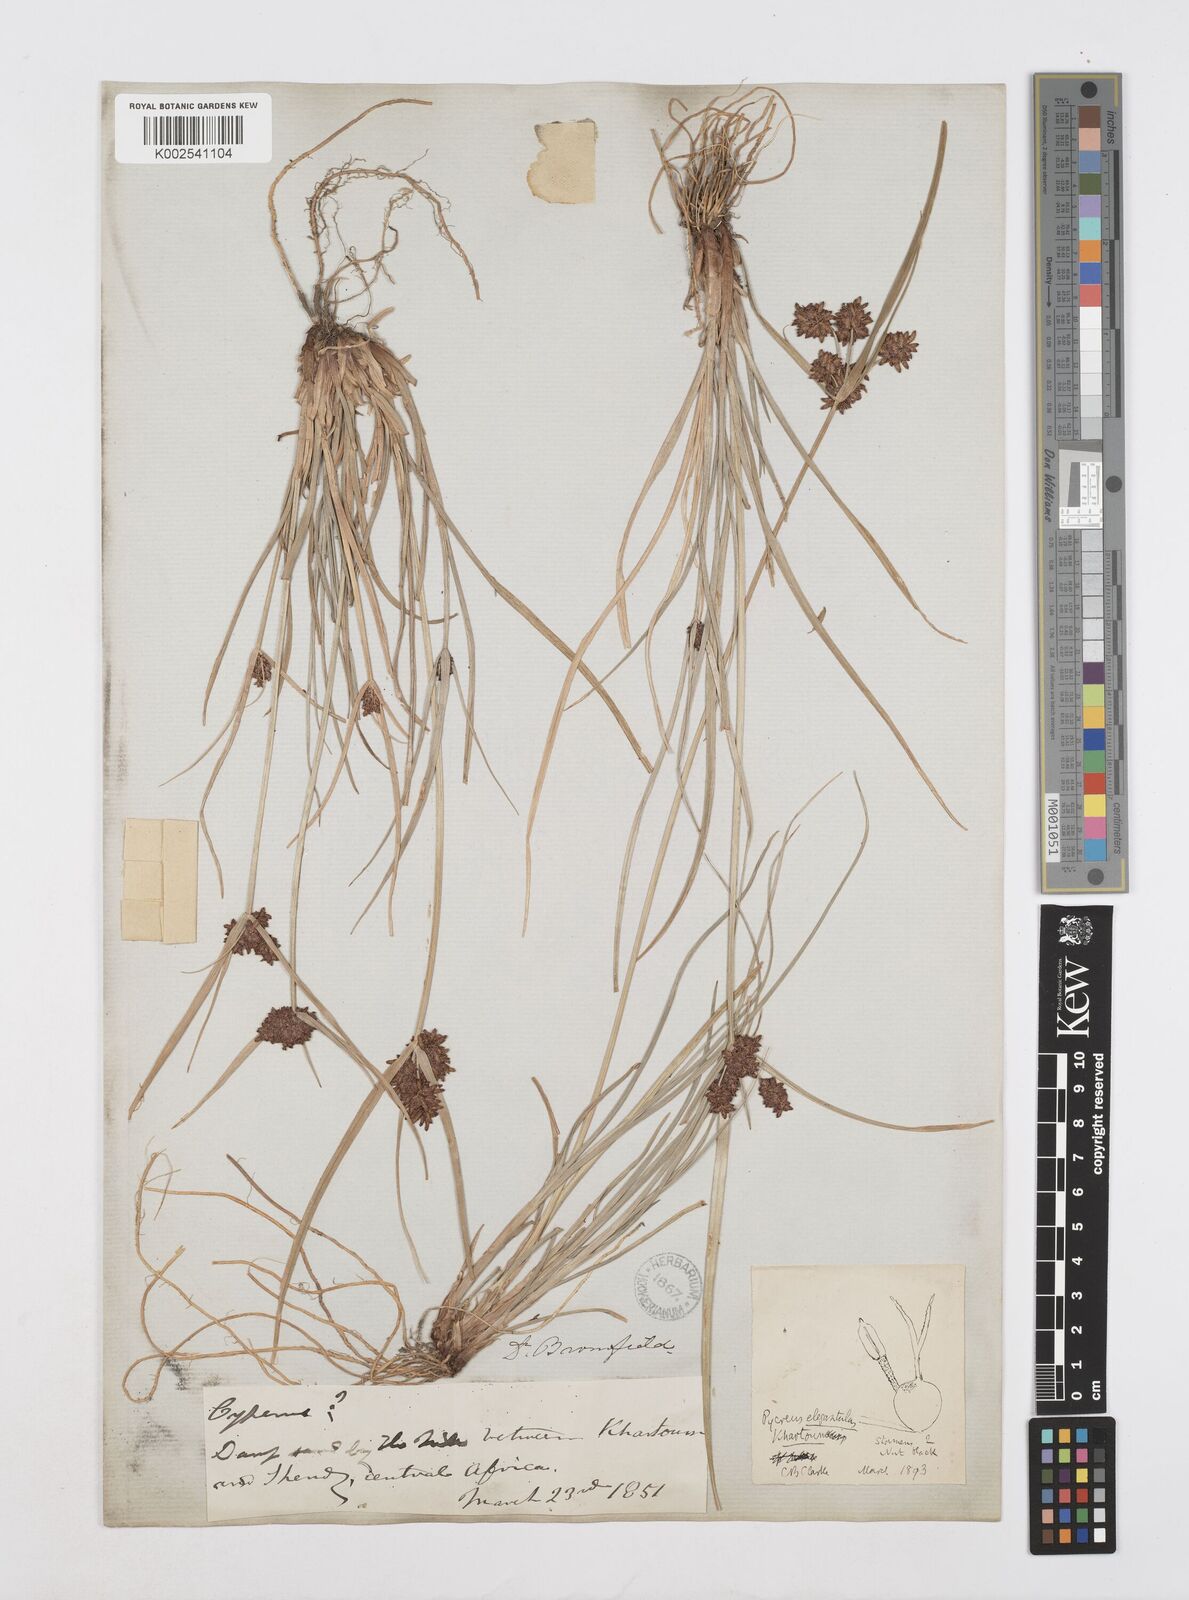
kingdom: Plantae
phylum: Tracheophyta
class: Liliopsida
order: Poales
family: Cyperaceae
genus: Cyperus
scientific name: Cyperus elegantulus
